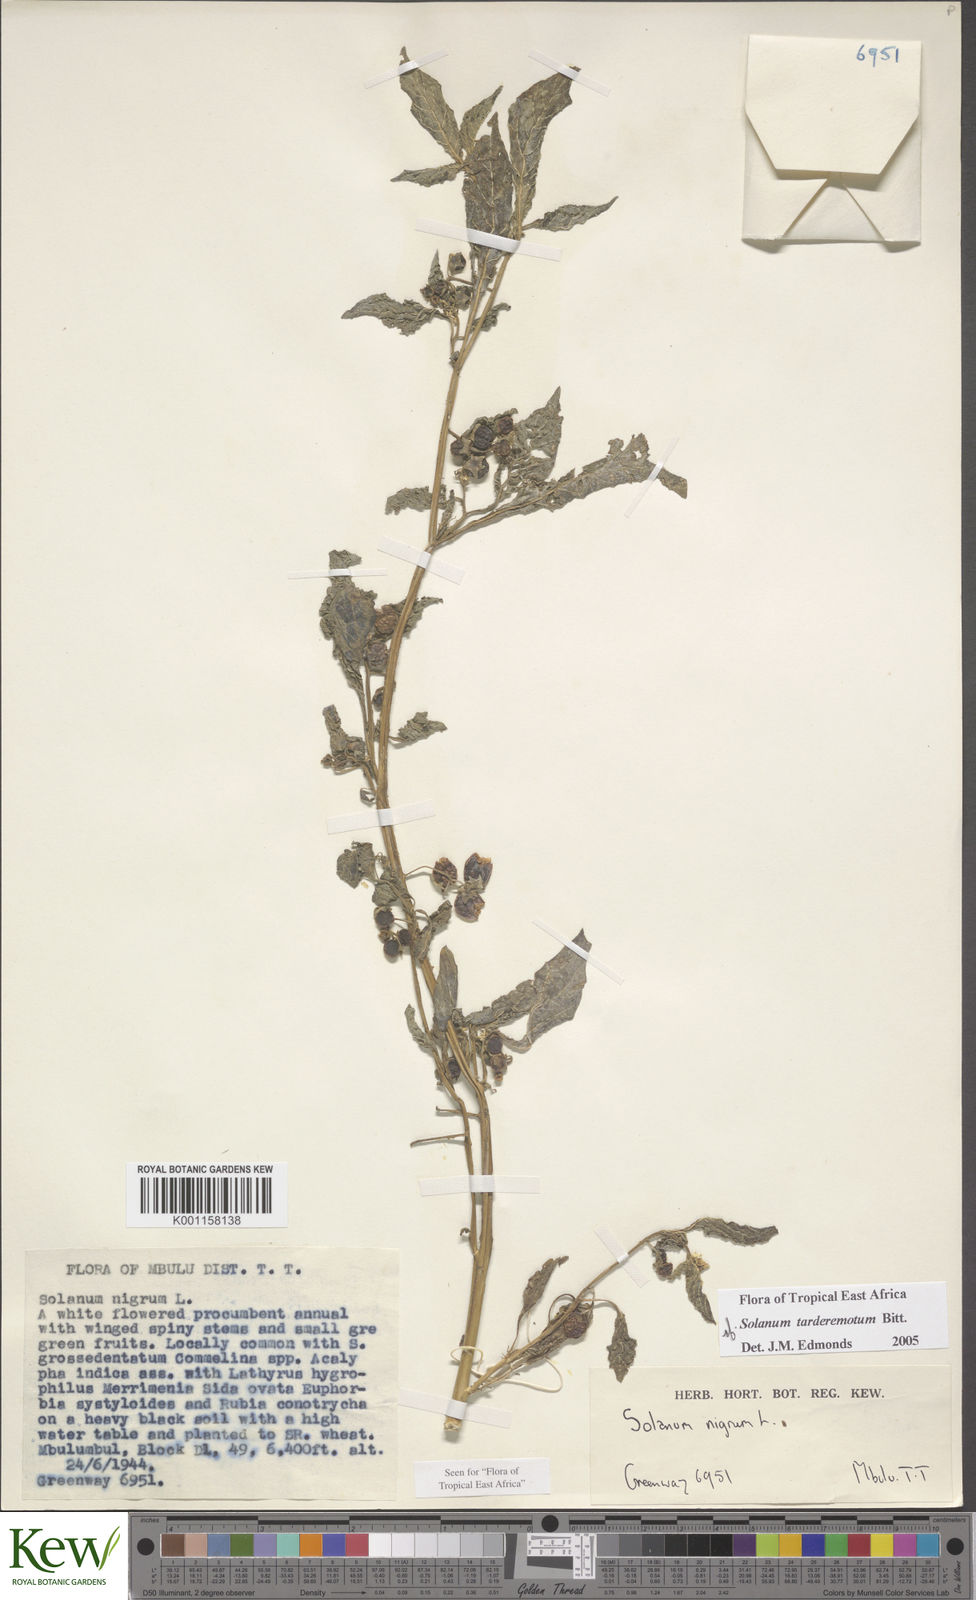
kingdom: Plantae
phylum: Tracheophyta
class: Magnoliopsida
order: Solanales
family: Solanaceae
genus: Solanum
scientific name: Solanum tarderemotum
